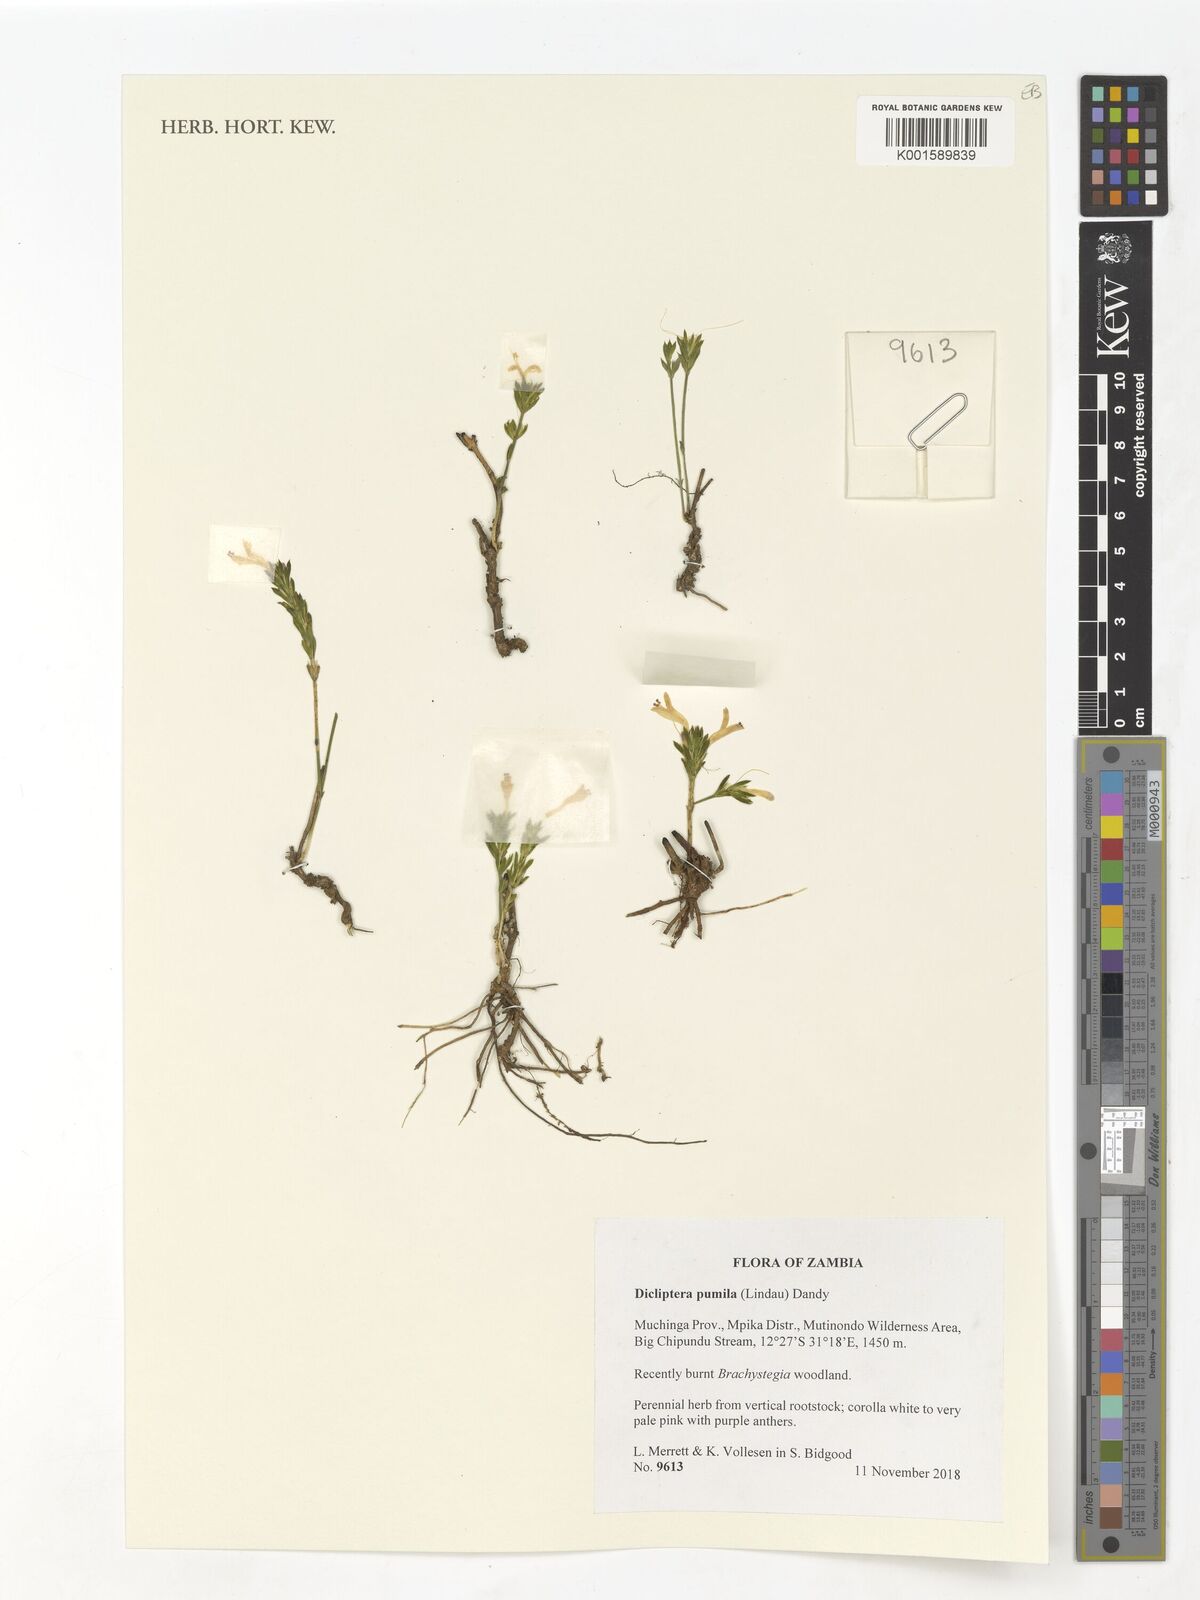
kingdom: Plantae
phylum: Tracheophyta
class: Magnoliopsida
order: Lamiales
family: Acanthaceae
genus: Dicliptera
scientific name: Dicliptera pumila
